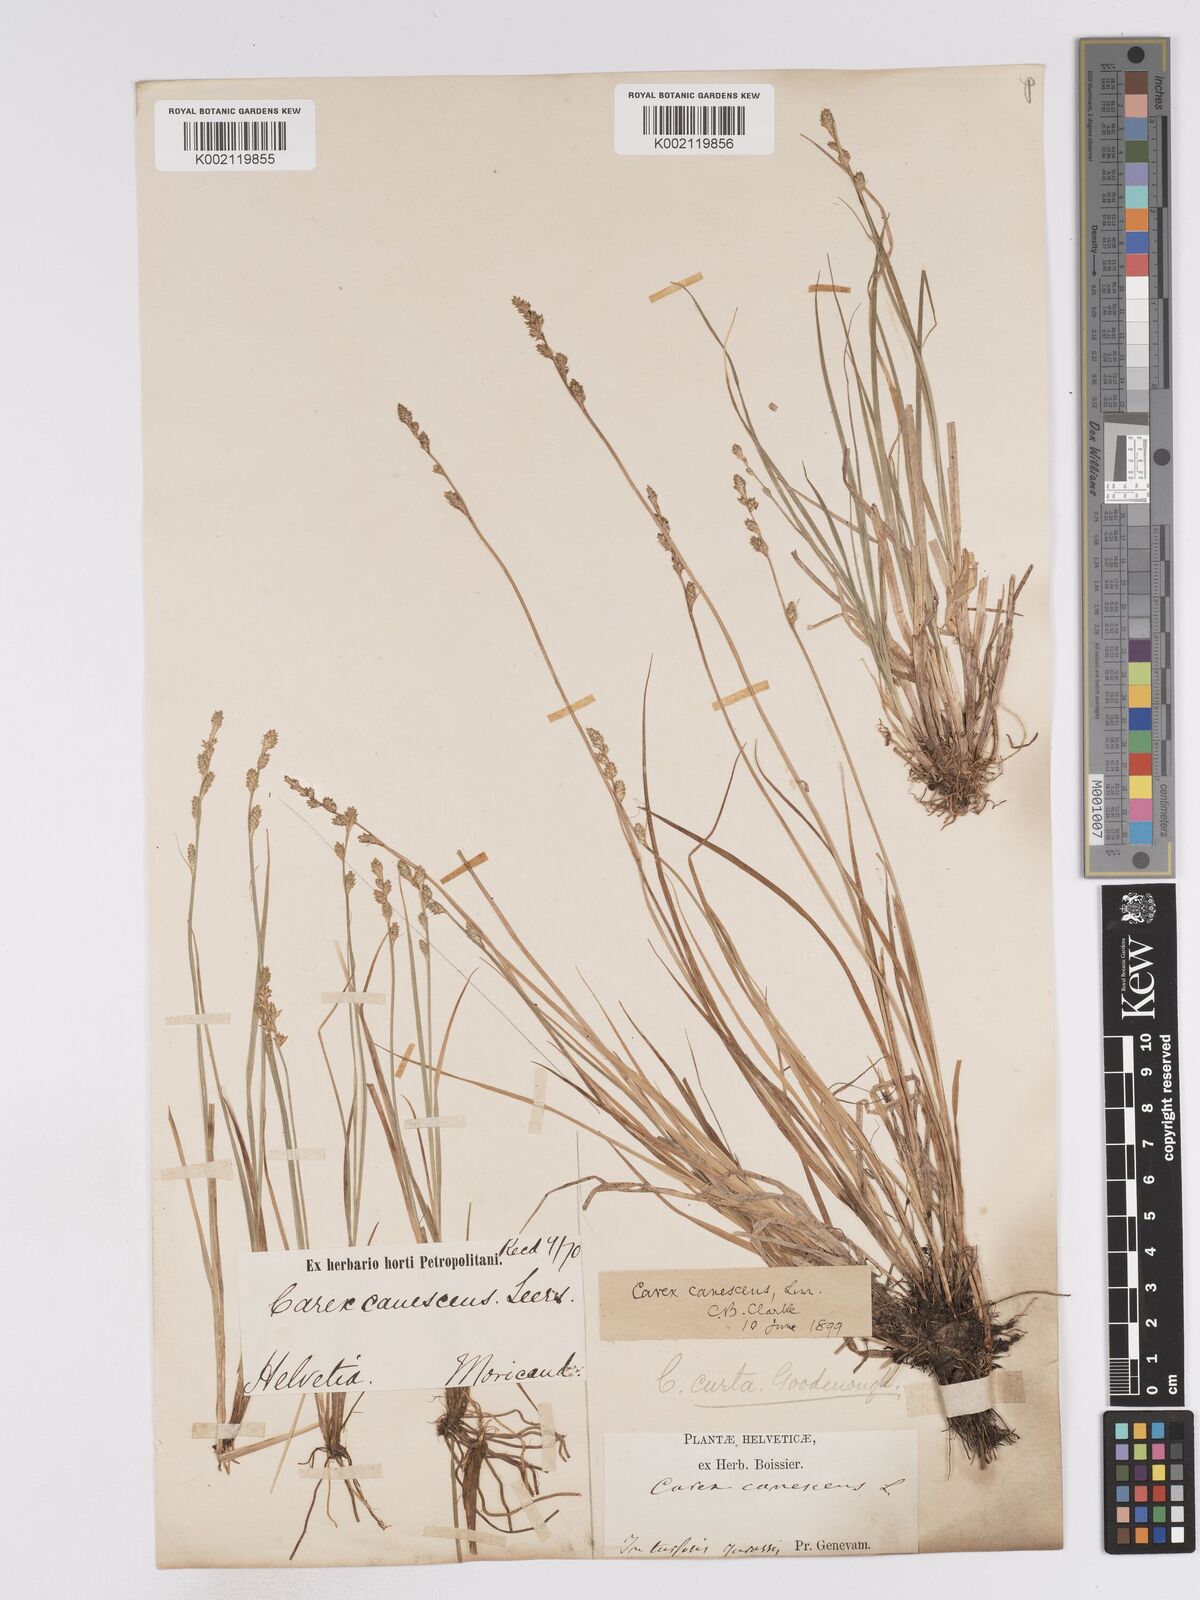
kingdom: Plantae
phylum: Tracheophyta
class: Liliopsida
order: Poales
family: Cyperaceae
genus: Carex
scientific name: Carex curta
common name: White sedge
